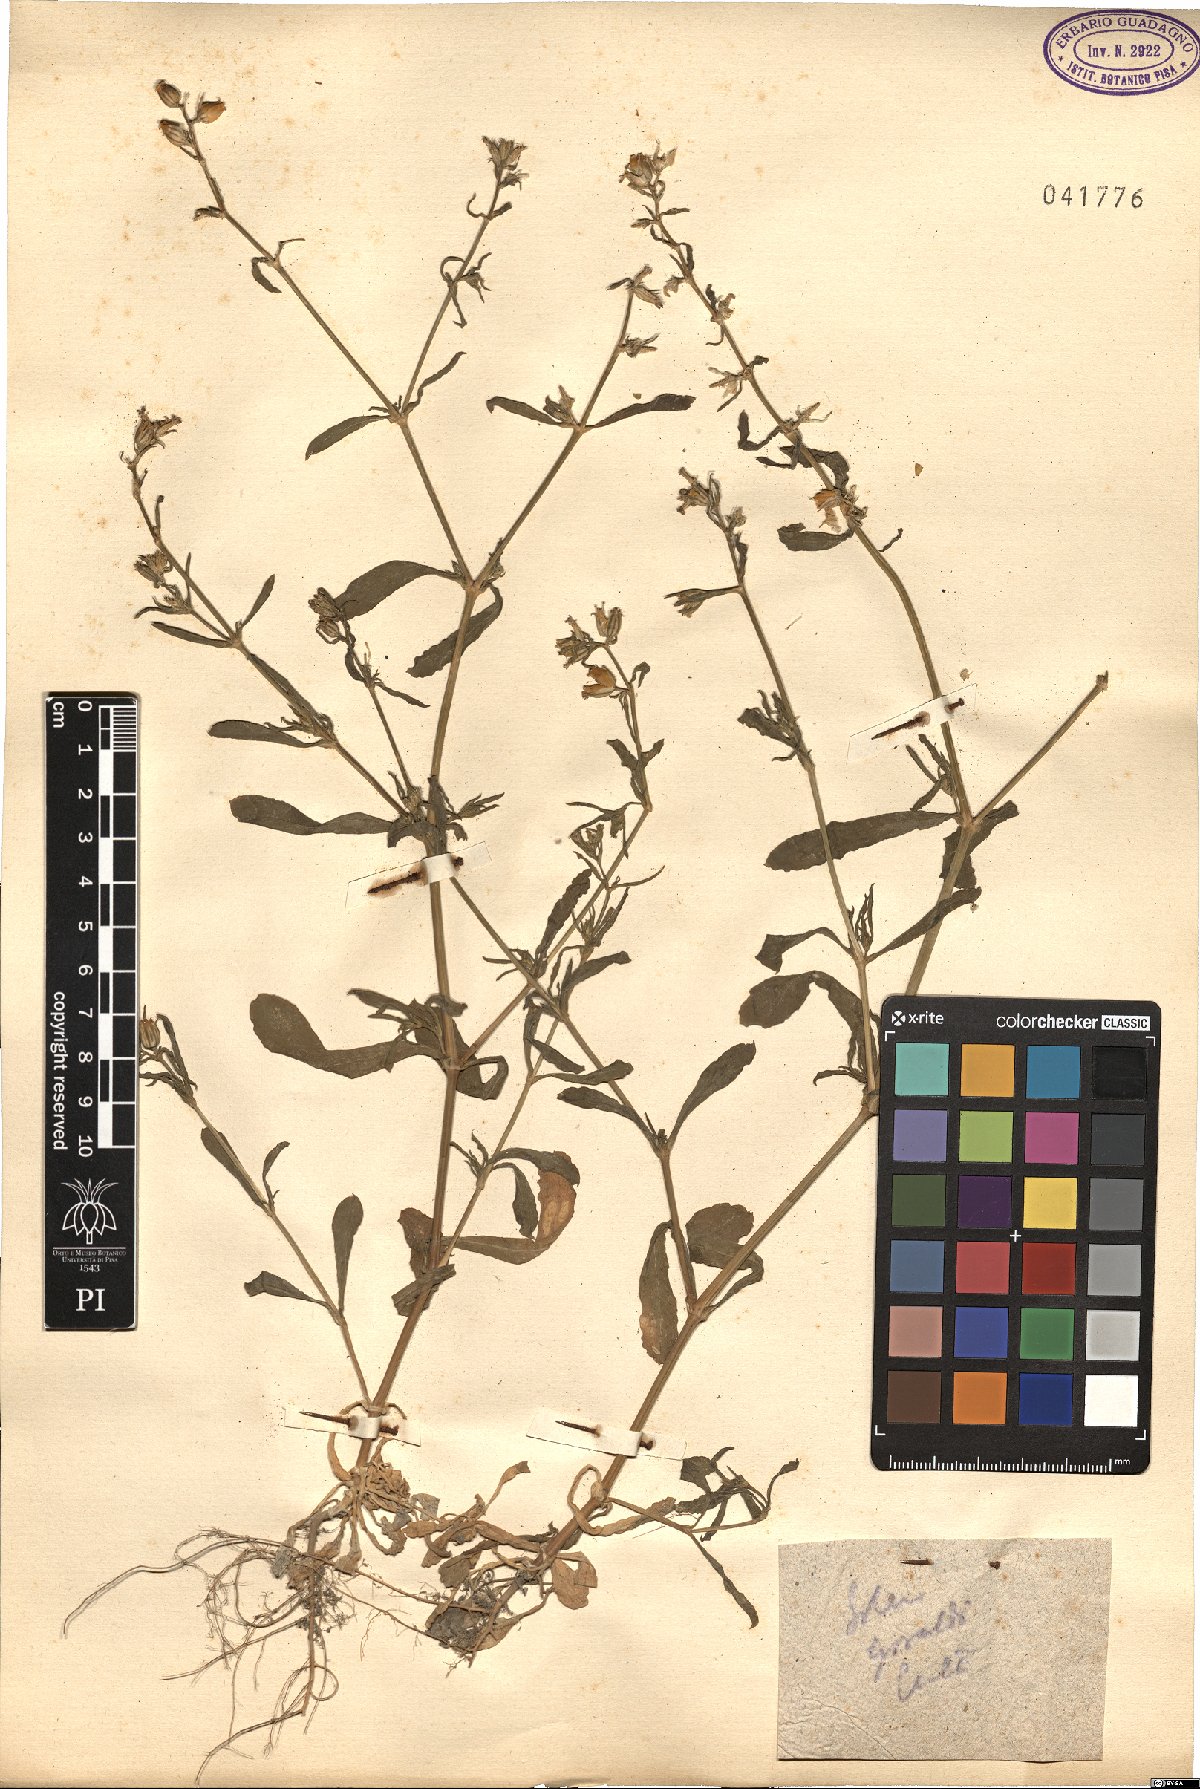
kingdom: Plantae
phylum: Tracheophyta
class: Magnoliopsida
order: Caryophyllales
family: Caryophyllaceae
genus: Silene
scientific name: Silene gallica
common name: Small-flowered catchfly
